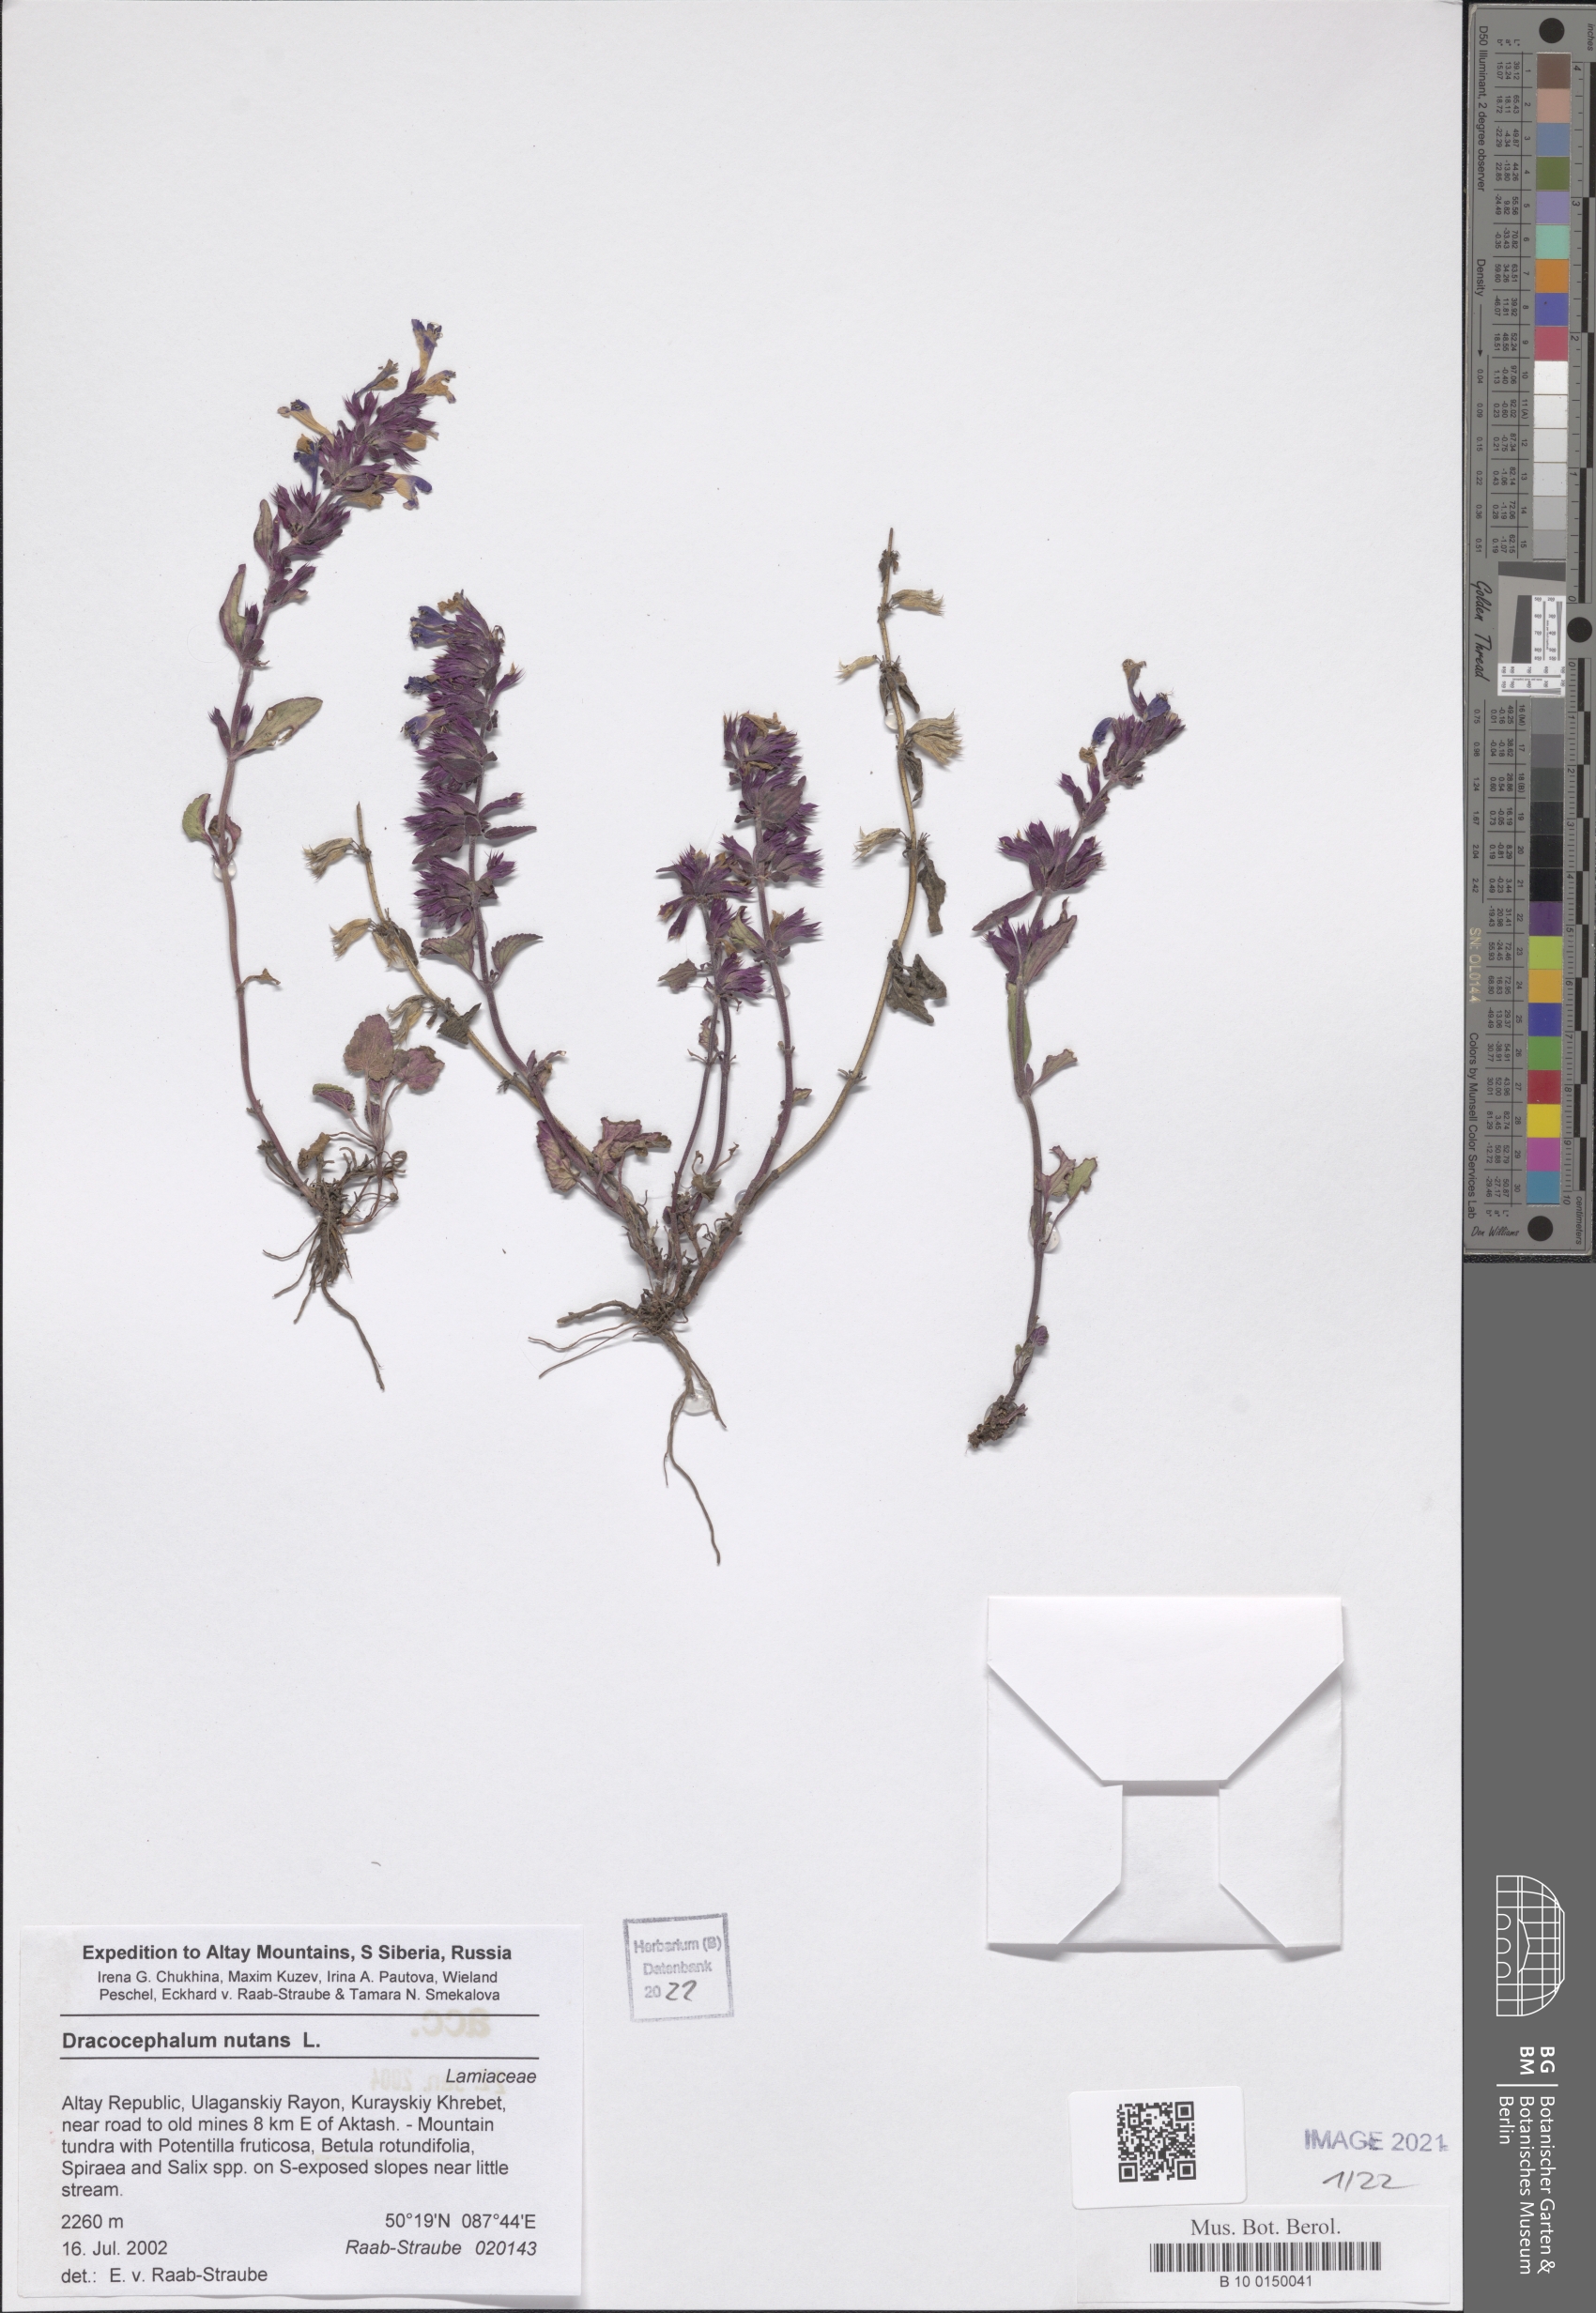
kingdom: Plantae
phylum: Tracheophyta
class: Magnoliopsida
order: Lamiales
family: Lamiaceae
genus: Dracocephalum
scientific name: Dracocephalum nutans
